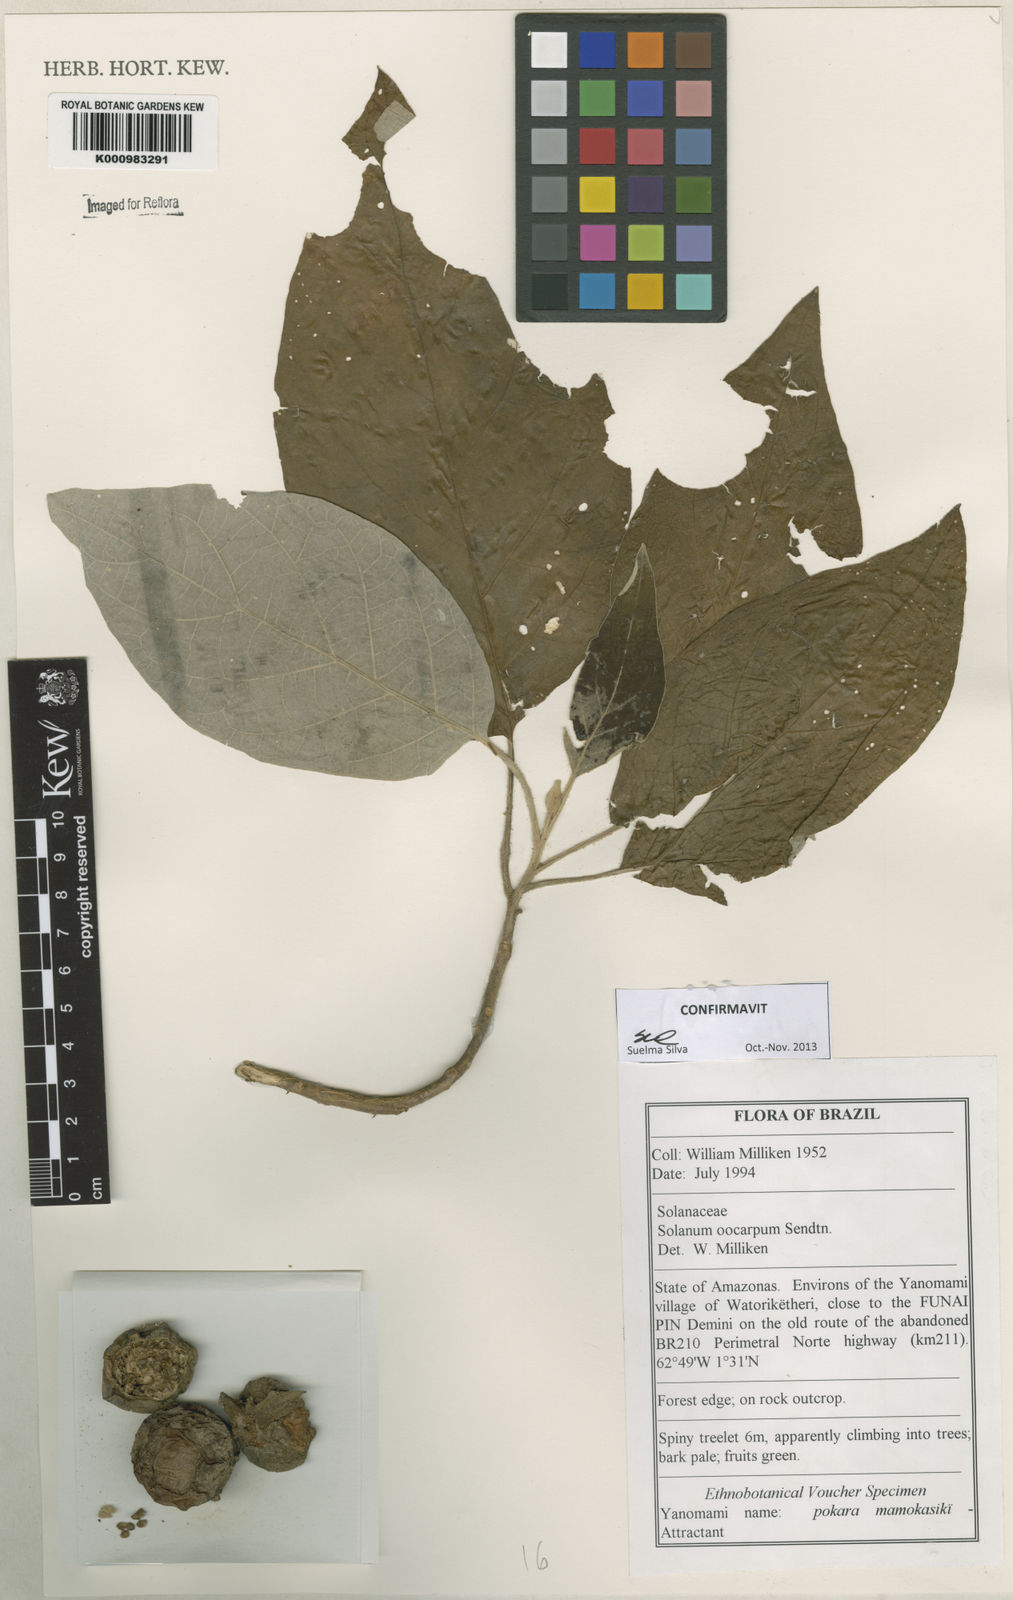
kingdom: Plantae
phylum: Tracheophyta
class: Magnoliopsida
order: Solanales
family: Solanaceae
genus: Solanum
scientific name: Solanum oocarpum
